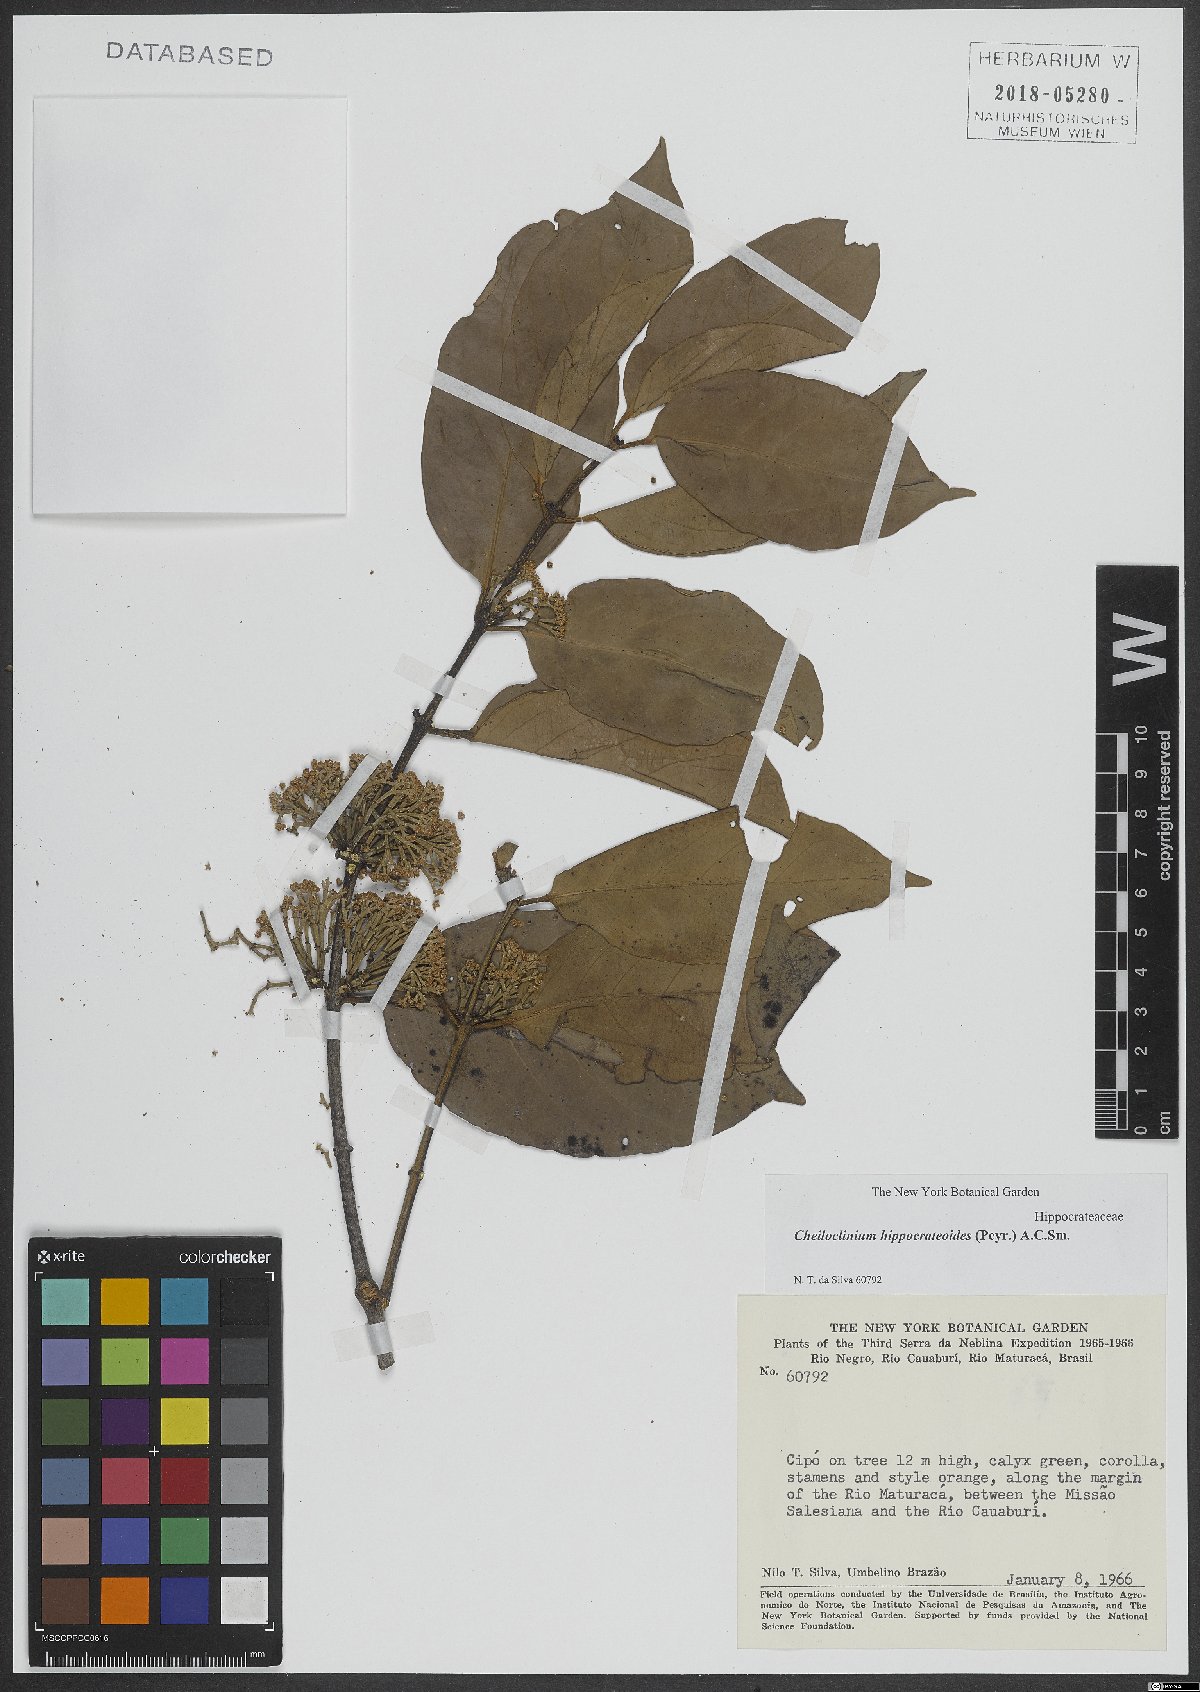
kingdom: Plantae
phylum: Tracheophyta
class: Magnoliopsida
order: Celastrales
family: Celastraceae
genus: Cheiloclinium
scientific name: Cheiloclinium hippocrateoides
